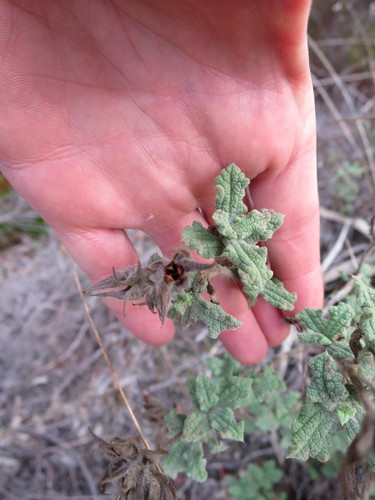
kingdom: Plantae
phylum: Tracheophyta
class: Magnoliopsida
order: Malvales
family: Cistaceae
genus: Cistus
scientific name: Cistus crispus
